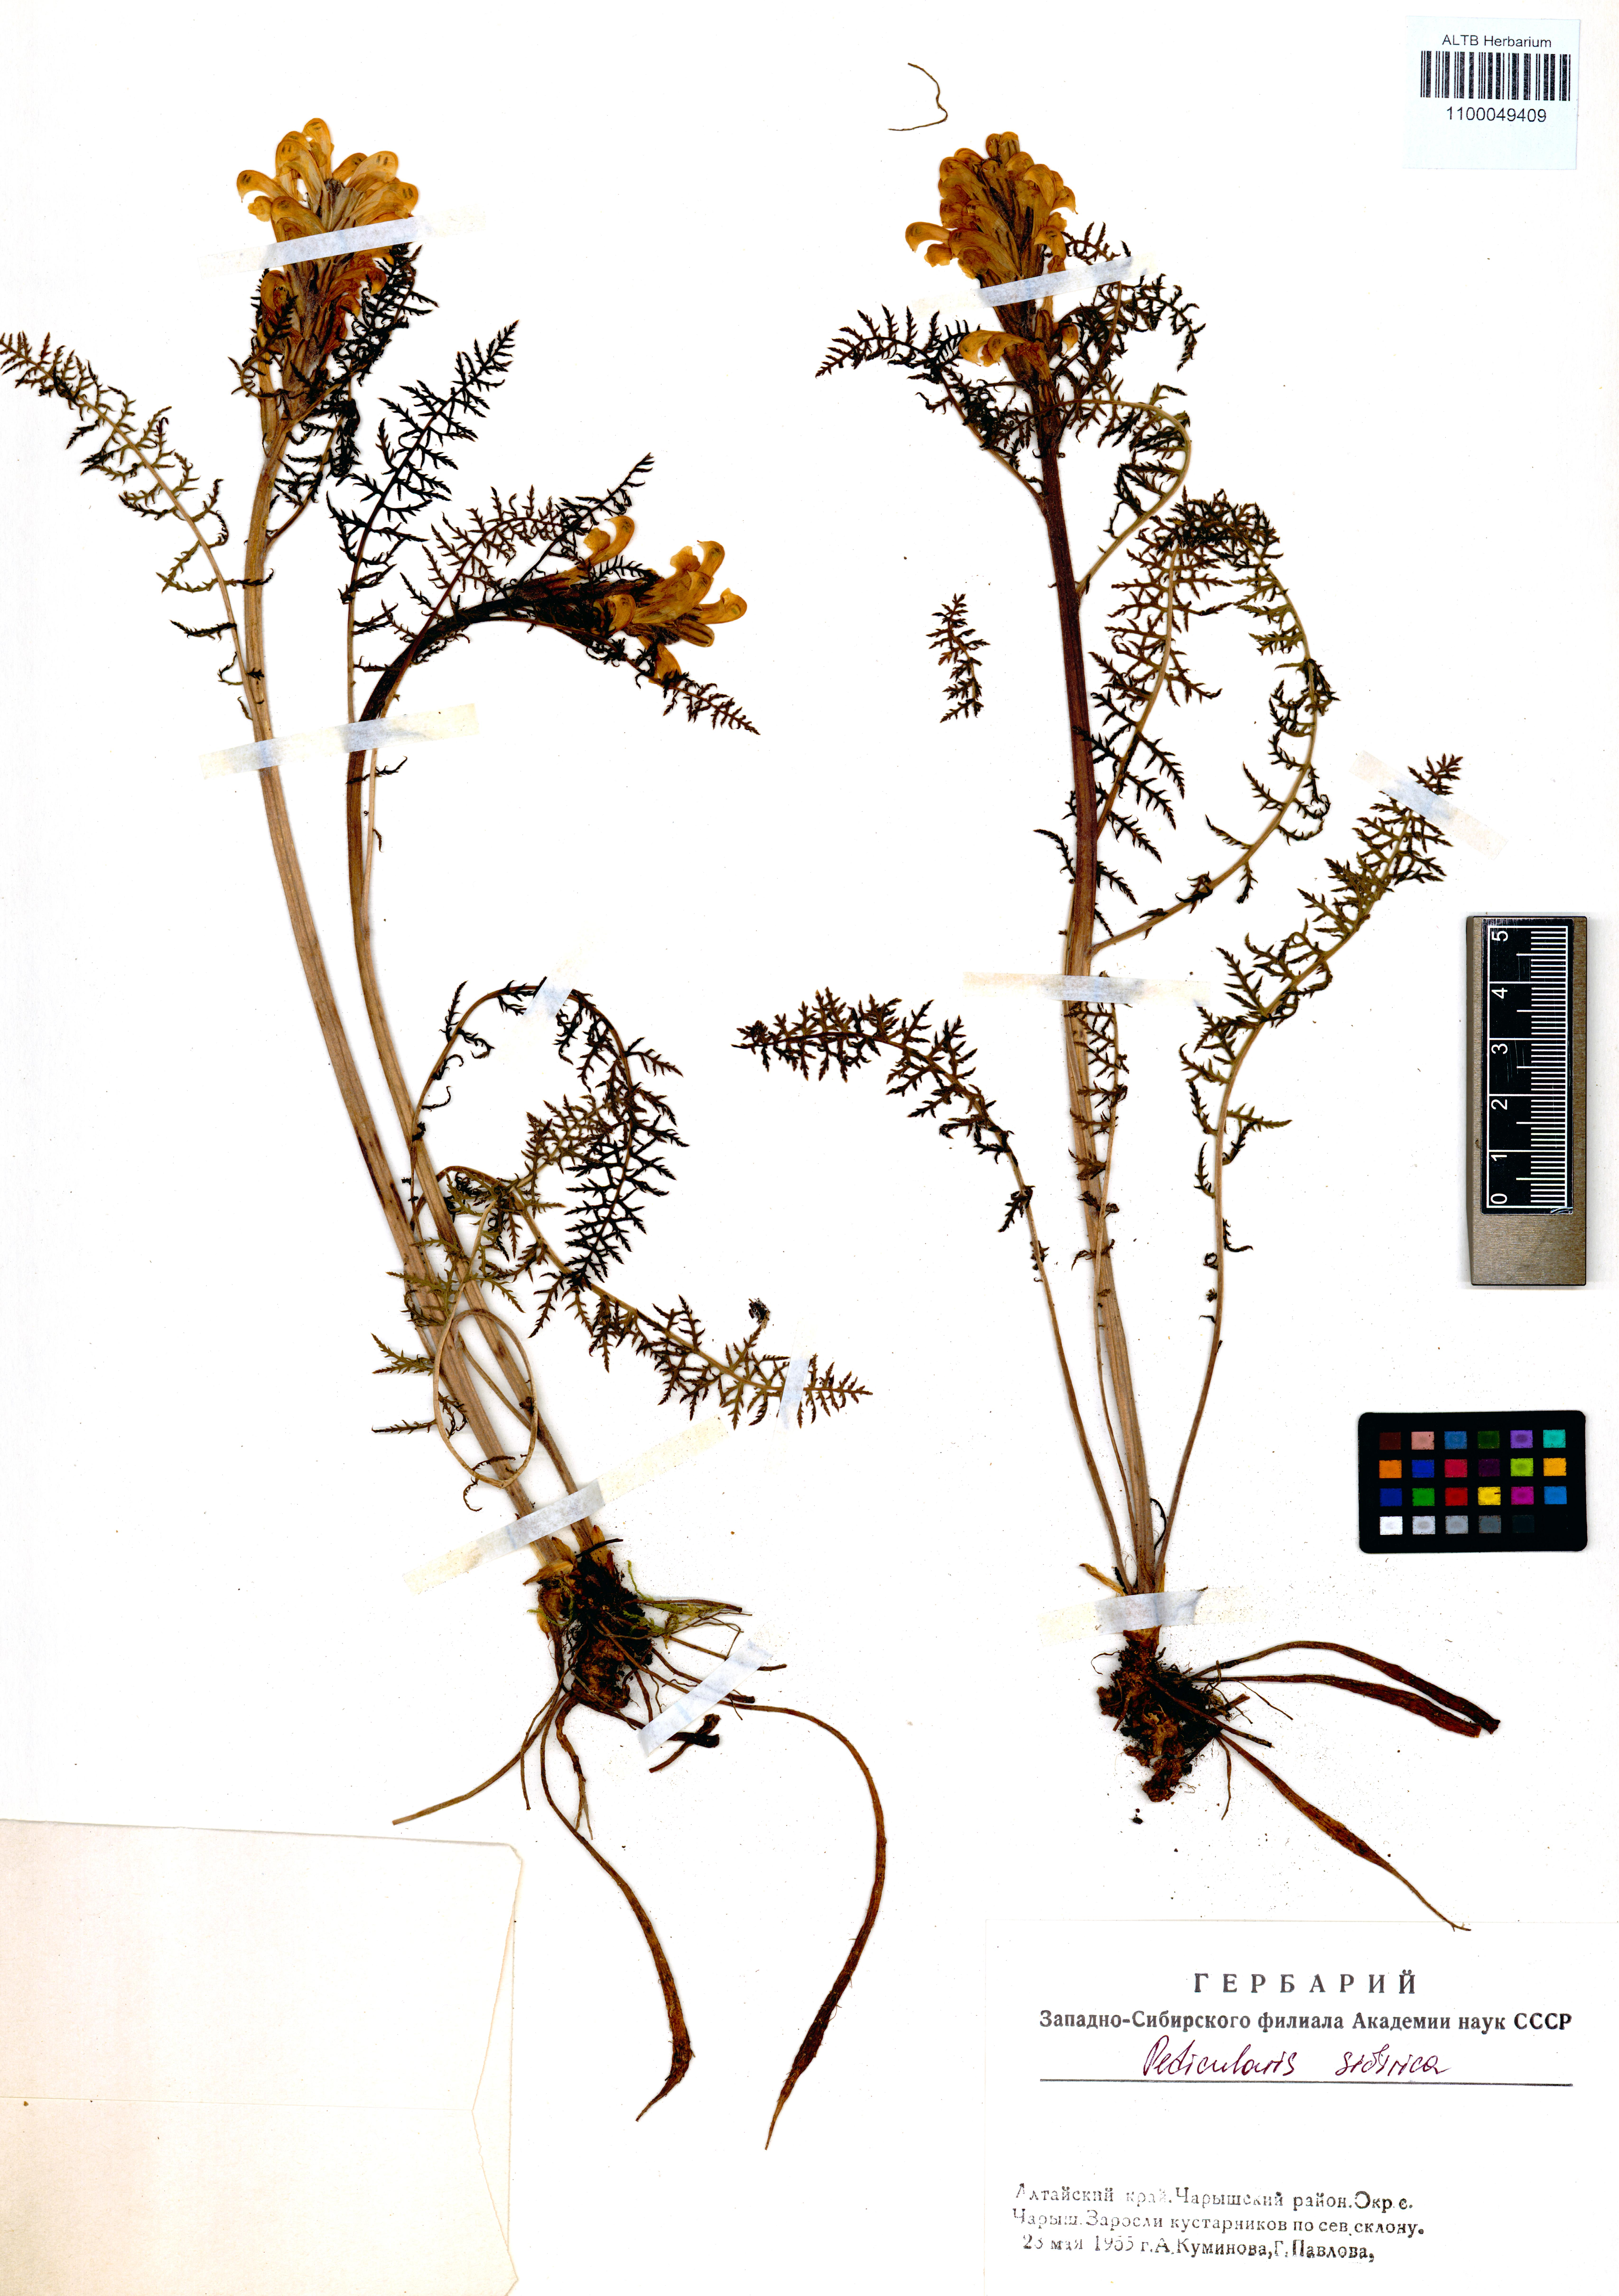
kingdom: Plantae
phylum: Tracheophyta
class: Magnoliopsida
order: Lamiales
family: Orobanchaceae
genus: Pedicularis
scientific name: Pedicularis sibirica
